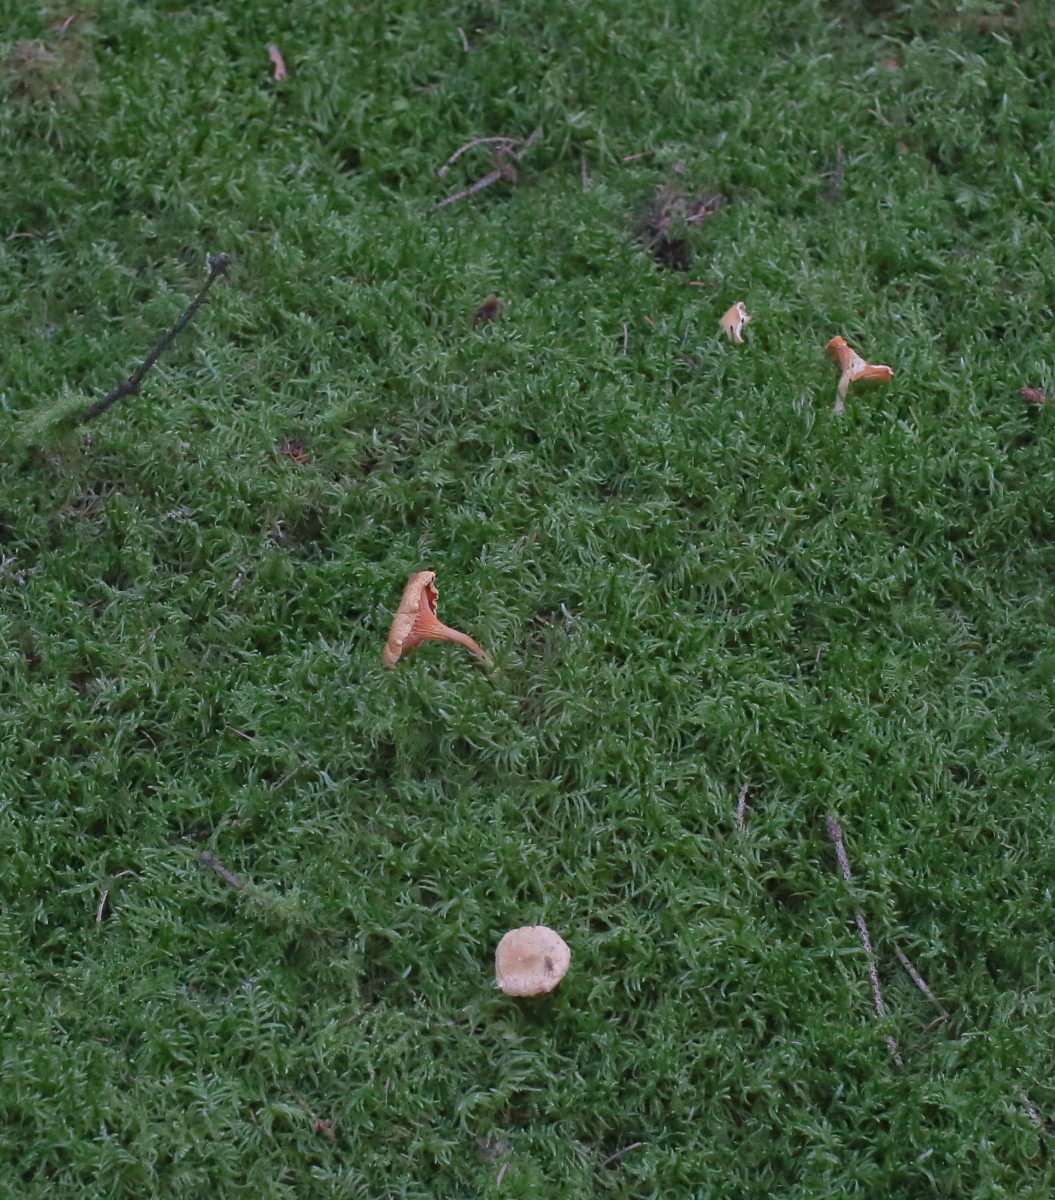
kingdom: Fungi
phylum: Basidiomycota
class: Agaricomycetes
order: Boletales
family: Hygrophoropsidaceae
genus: Hygrophoropsis
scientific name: Hygrophoropsis
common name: orangekantarel
